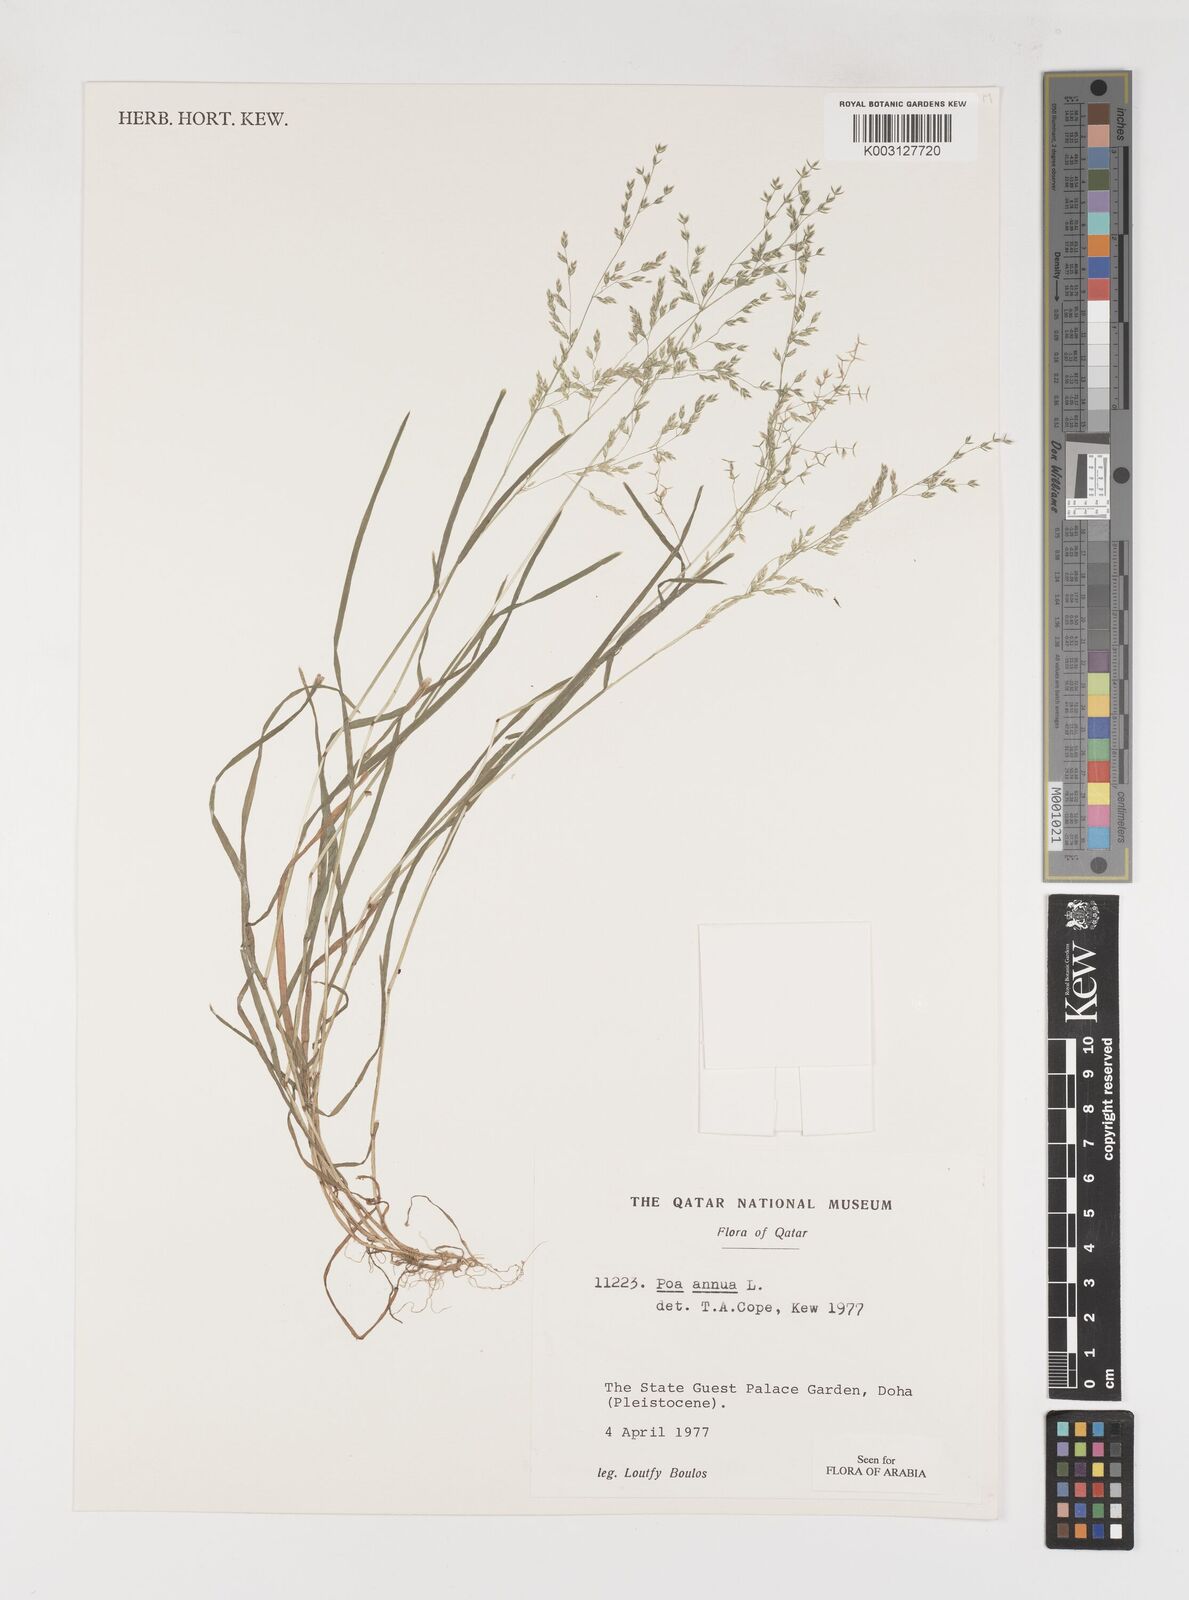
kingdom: Plantae
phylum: Tracheophyta
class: Liliopsida
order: Poales
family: Poaceae
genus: Poa
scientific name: Poa annua
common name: Annual bluegrass
